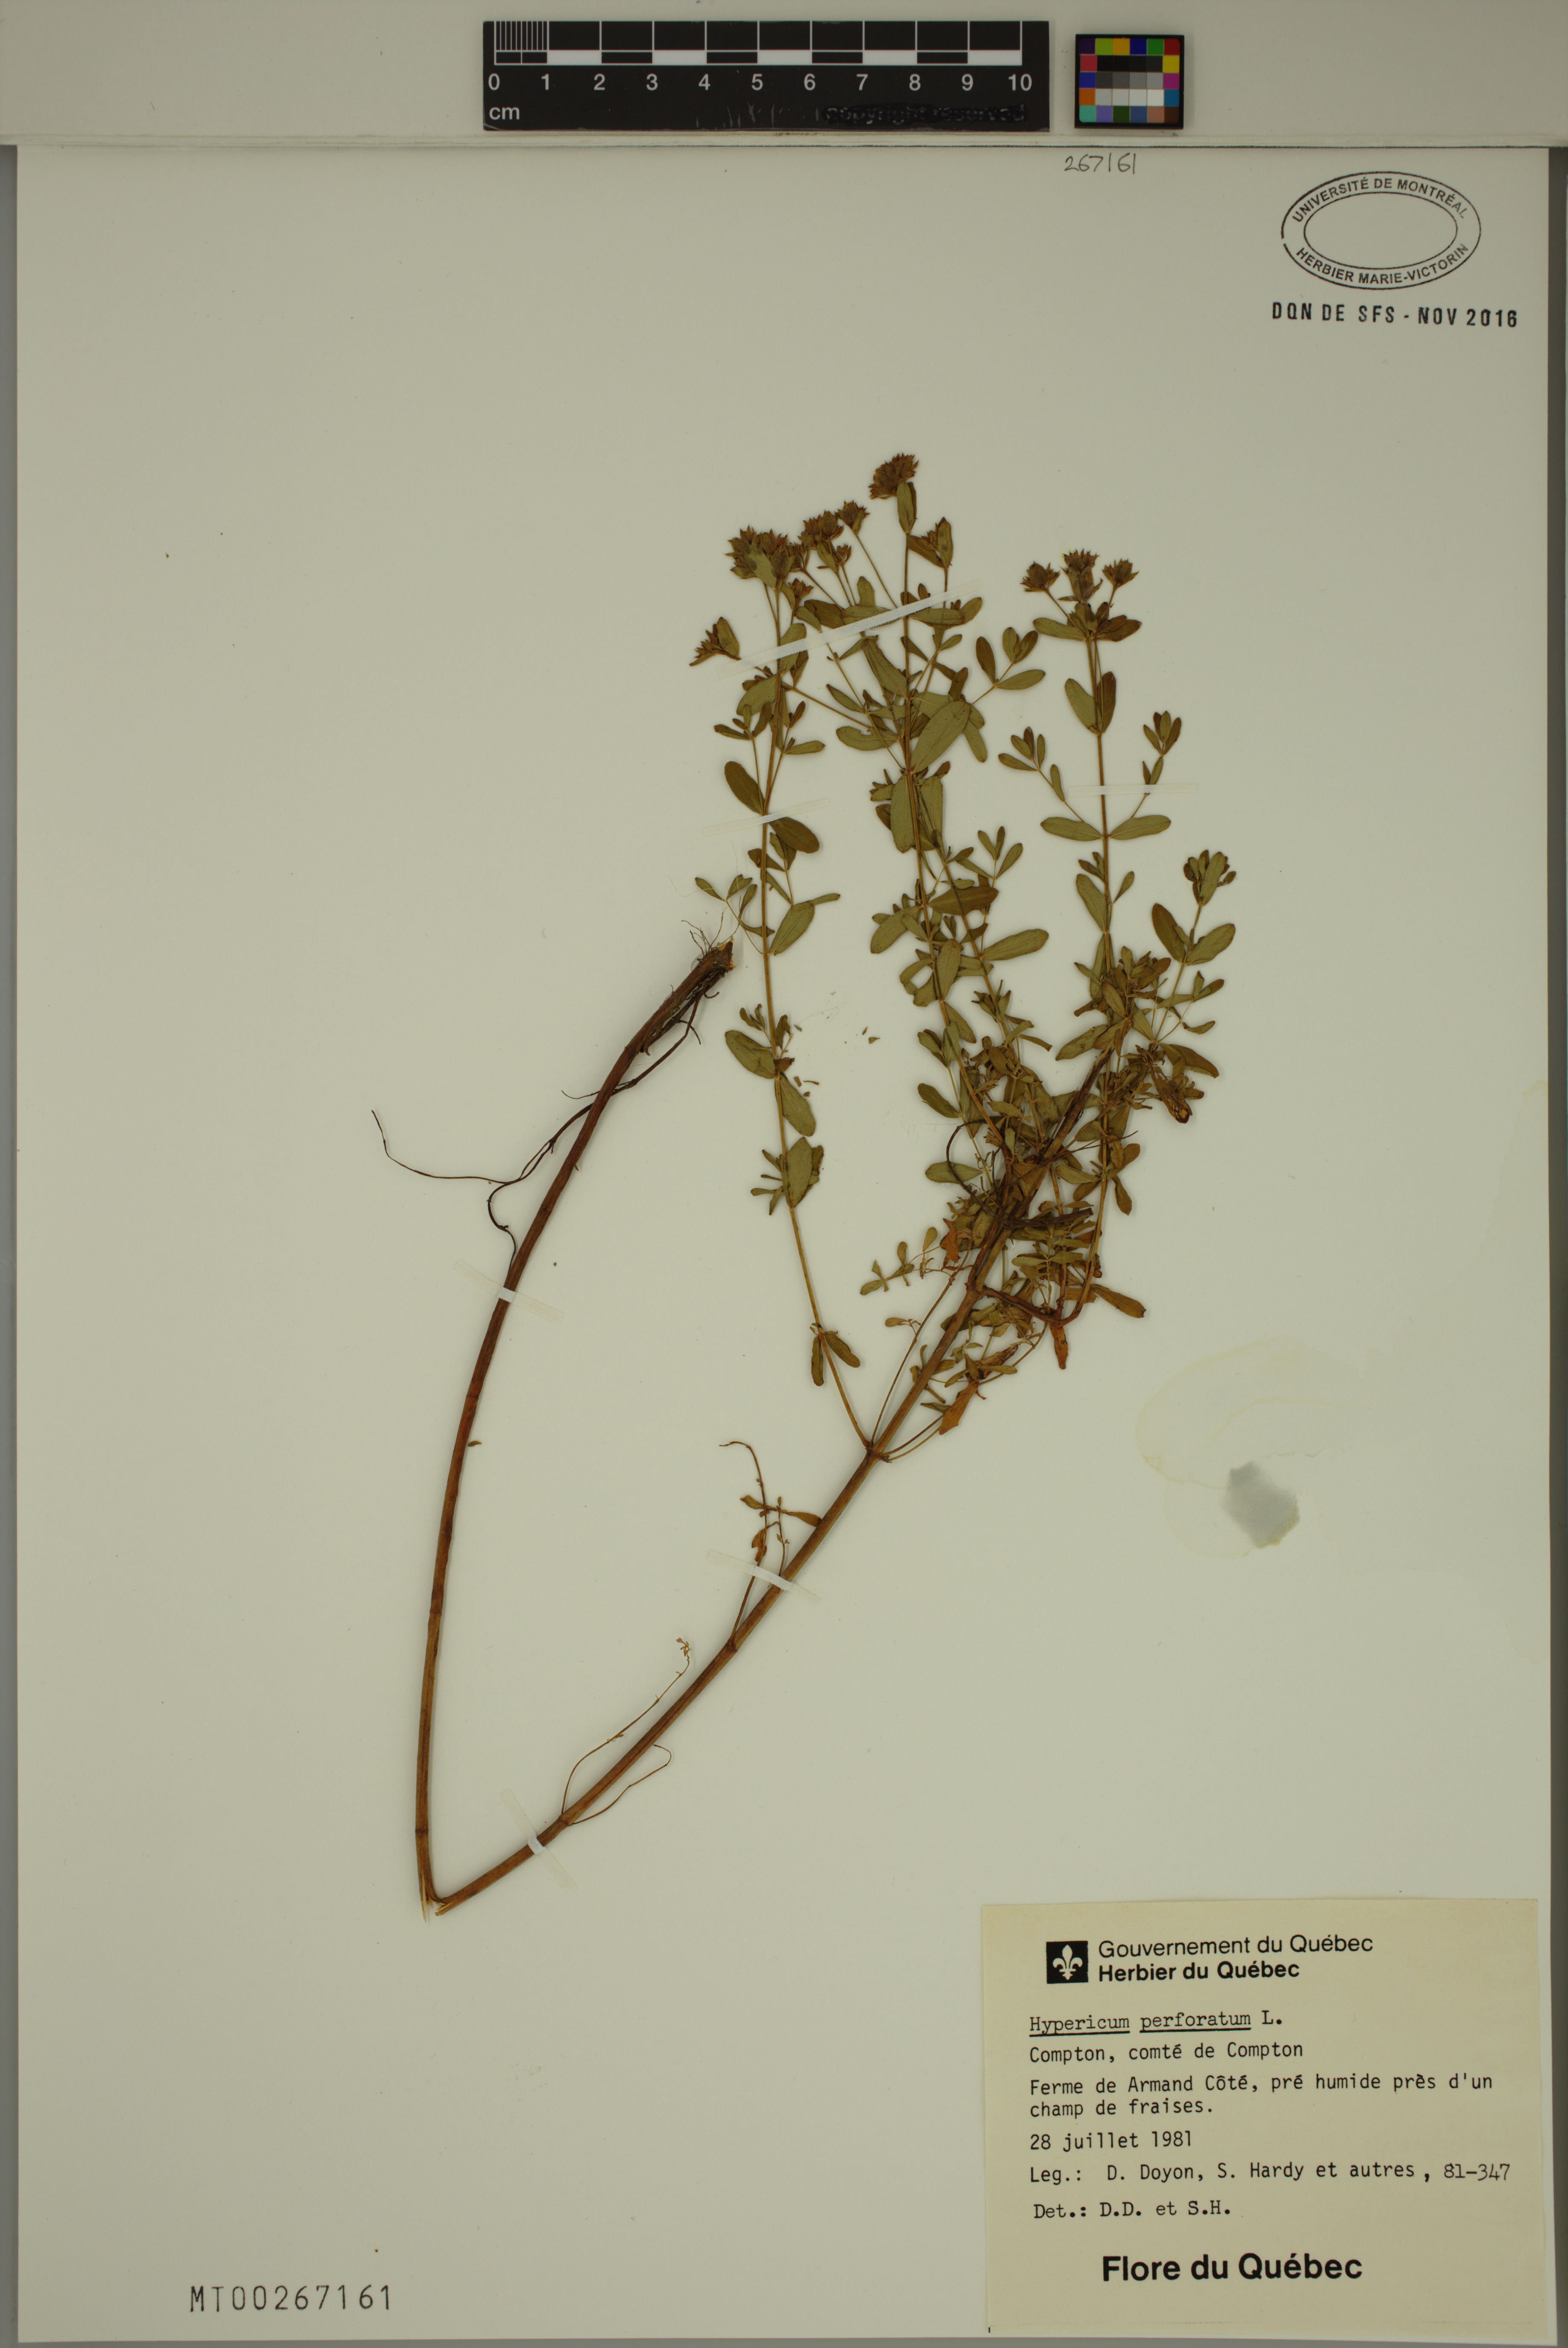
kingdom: Plantae
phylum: Tracheophyta
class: Magnoliopsida
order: Malpighiales
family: Hypericaceae
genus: Hypericum
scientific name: Hypericum perforatum
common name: Common st. johnswort
